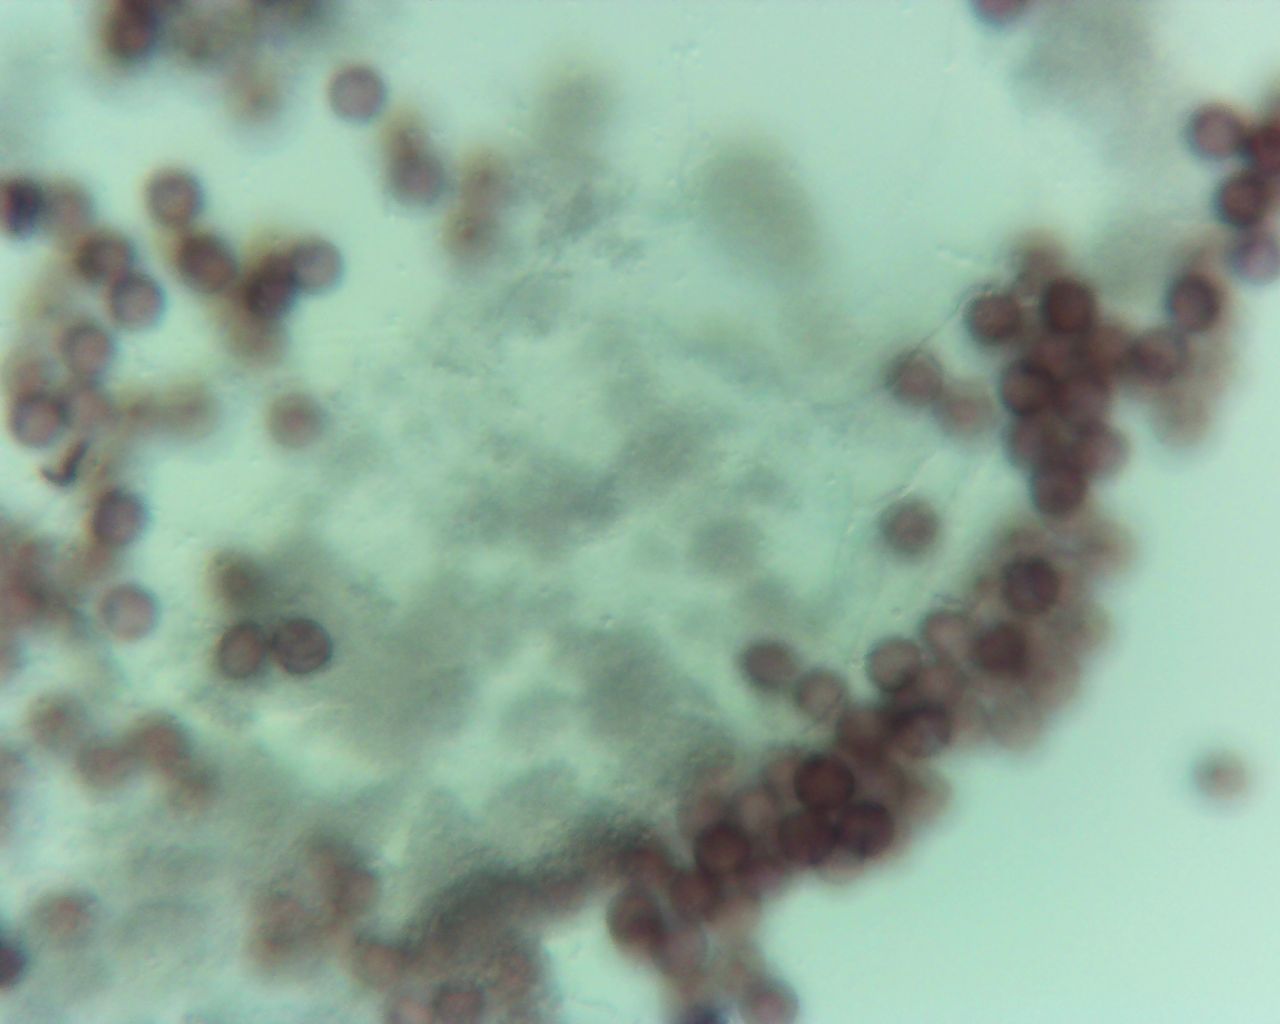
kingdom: Protozoa
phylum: Mycetozoa
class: Myxomycetes
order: Physarales
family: Physaraceae
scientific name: Physaraceae
